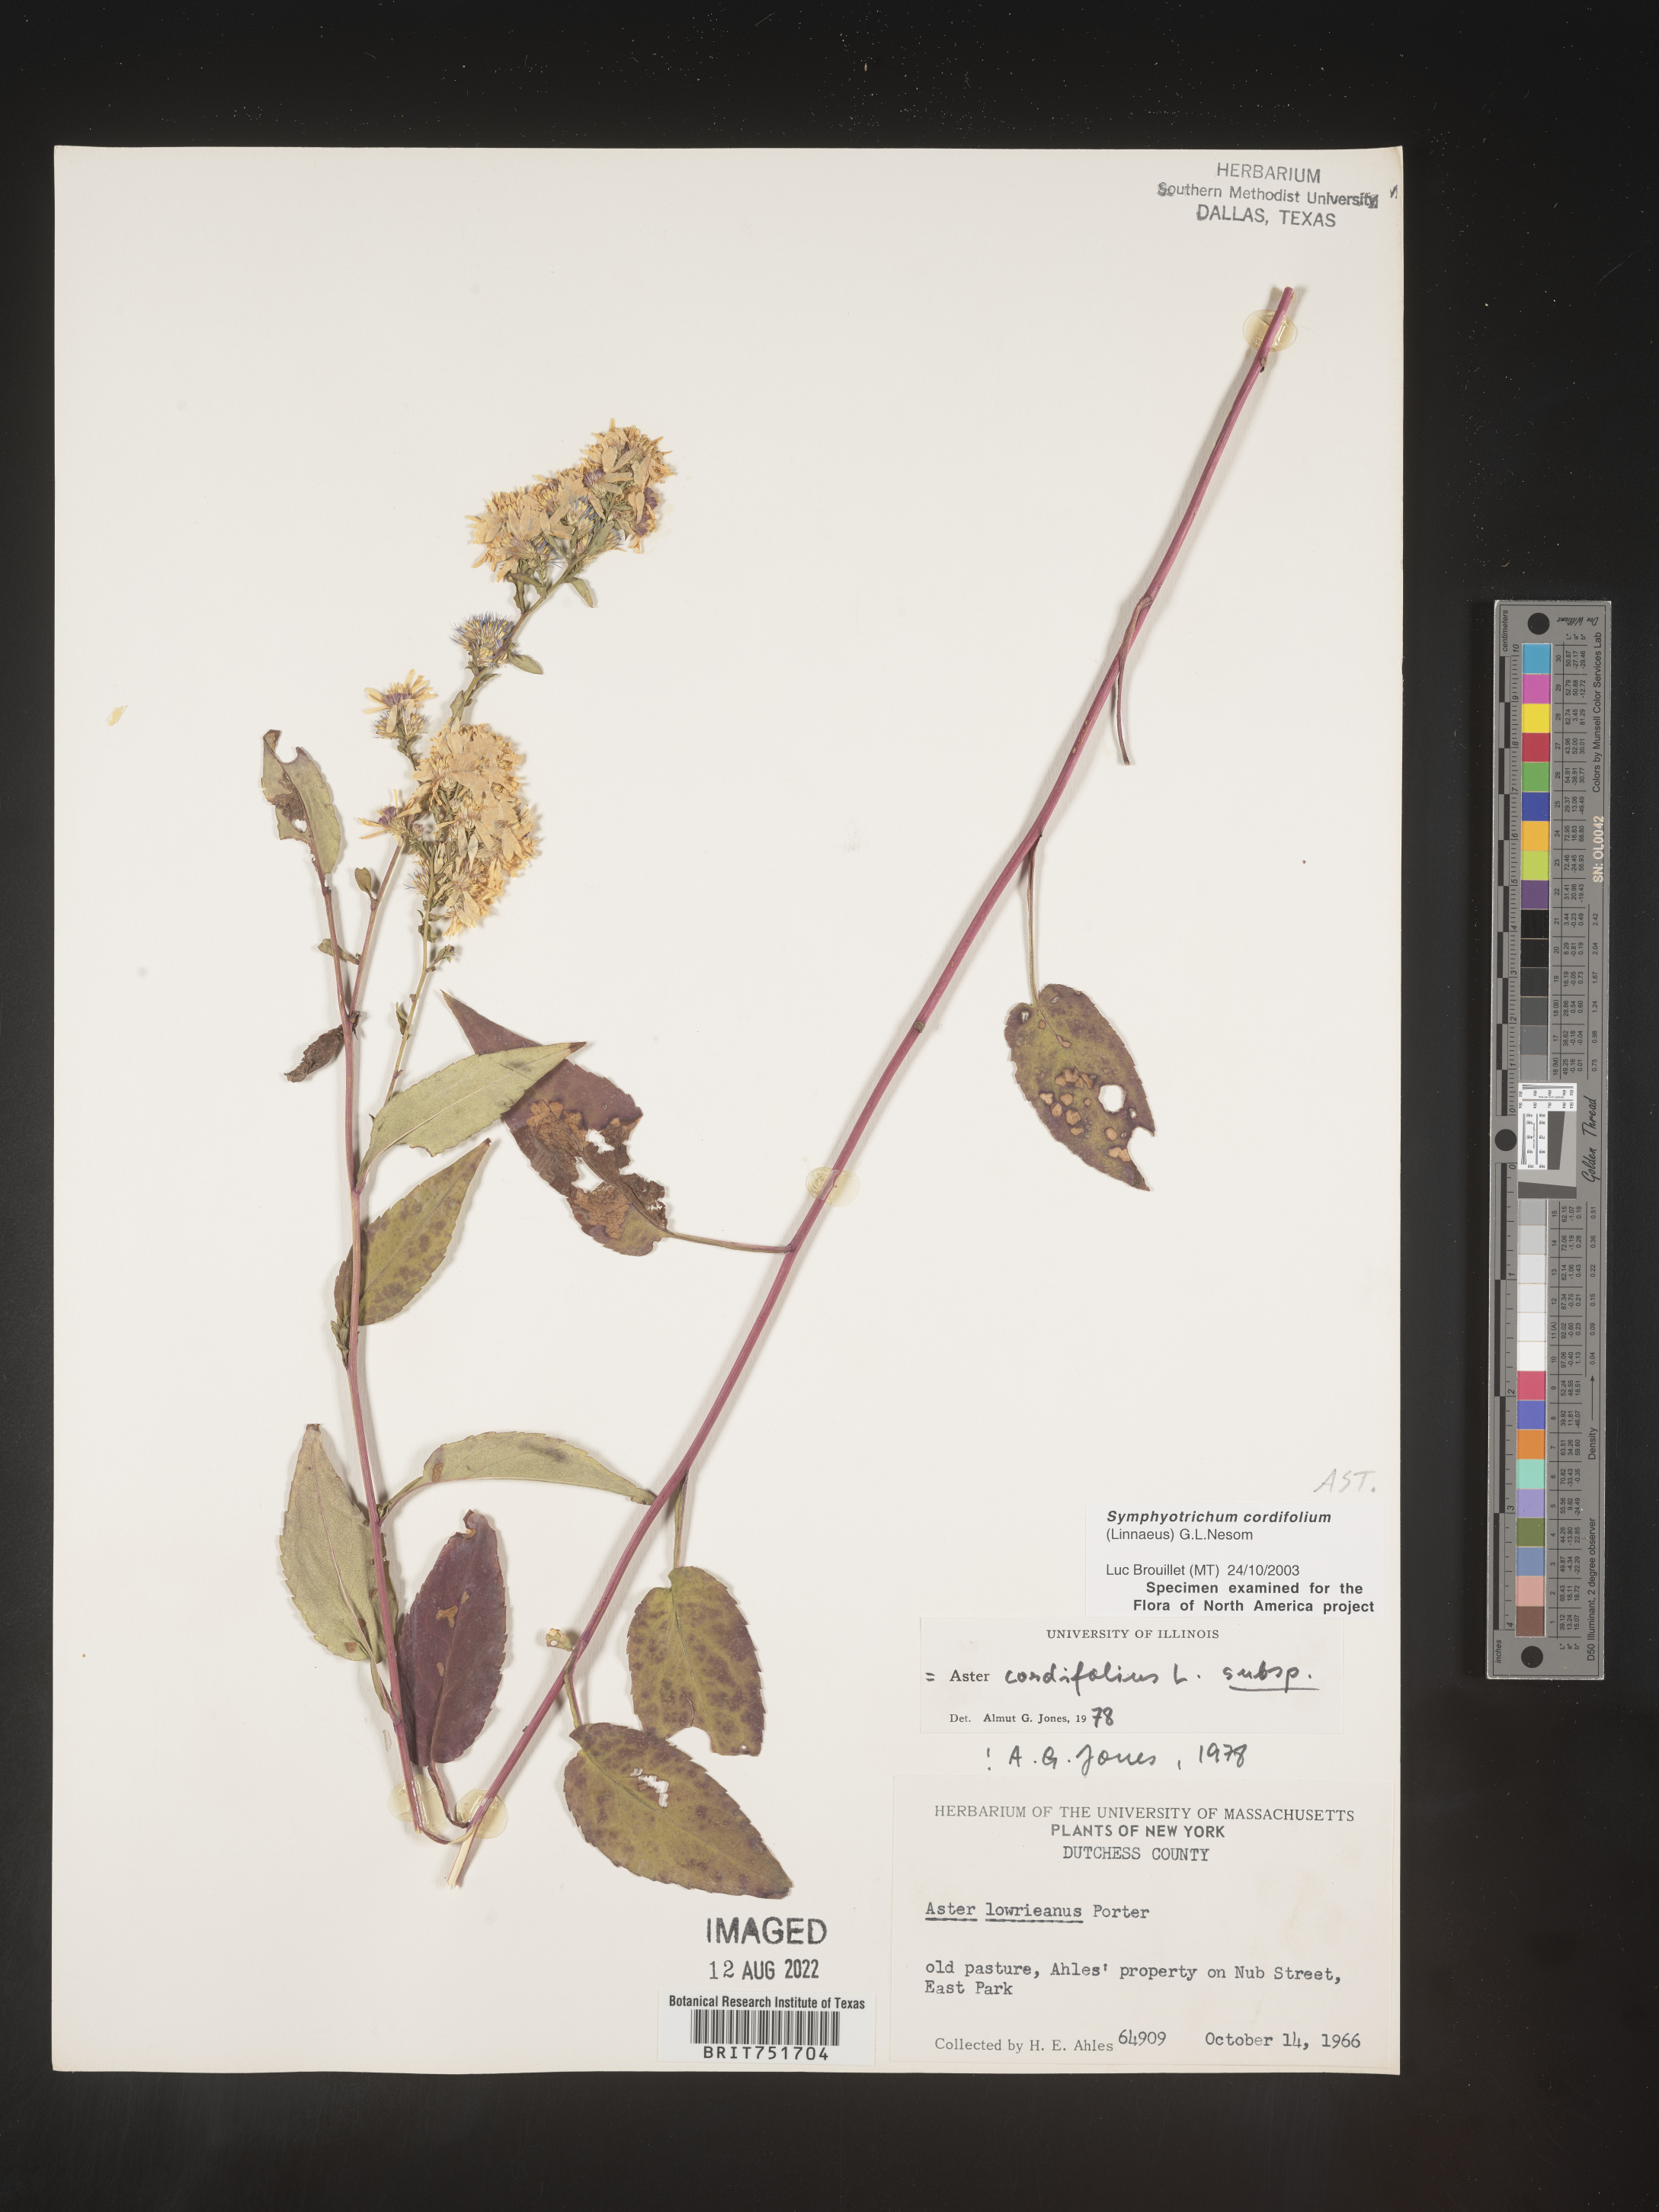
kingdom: Plantae
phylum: Tracheophyta
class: Magnoliopsida
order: Asterales
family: Asteraceae
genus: Symphyotrichum
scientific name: Symphyotrichum cordifolium
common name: Beeweed
